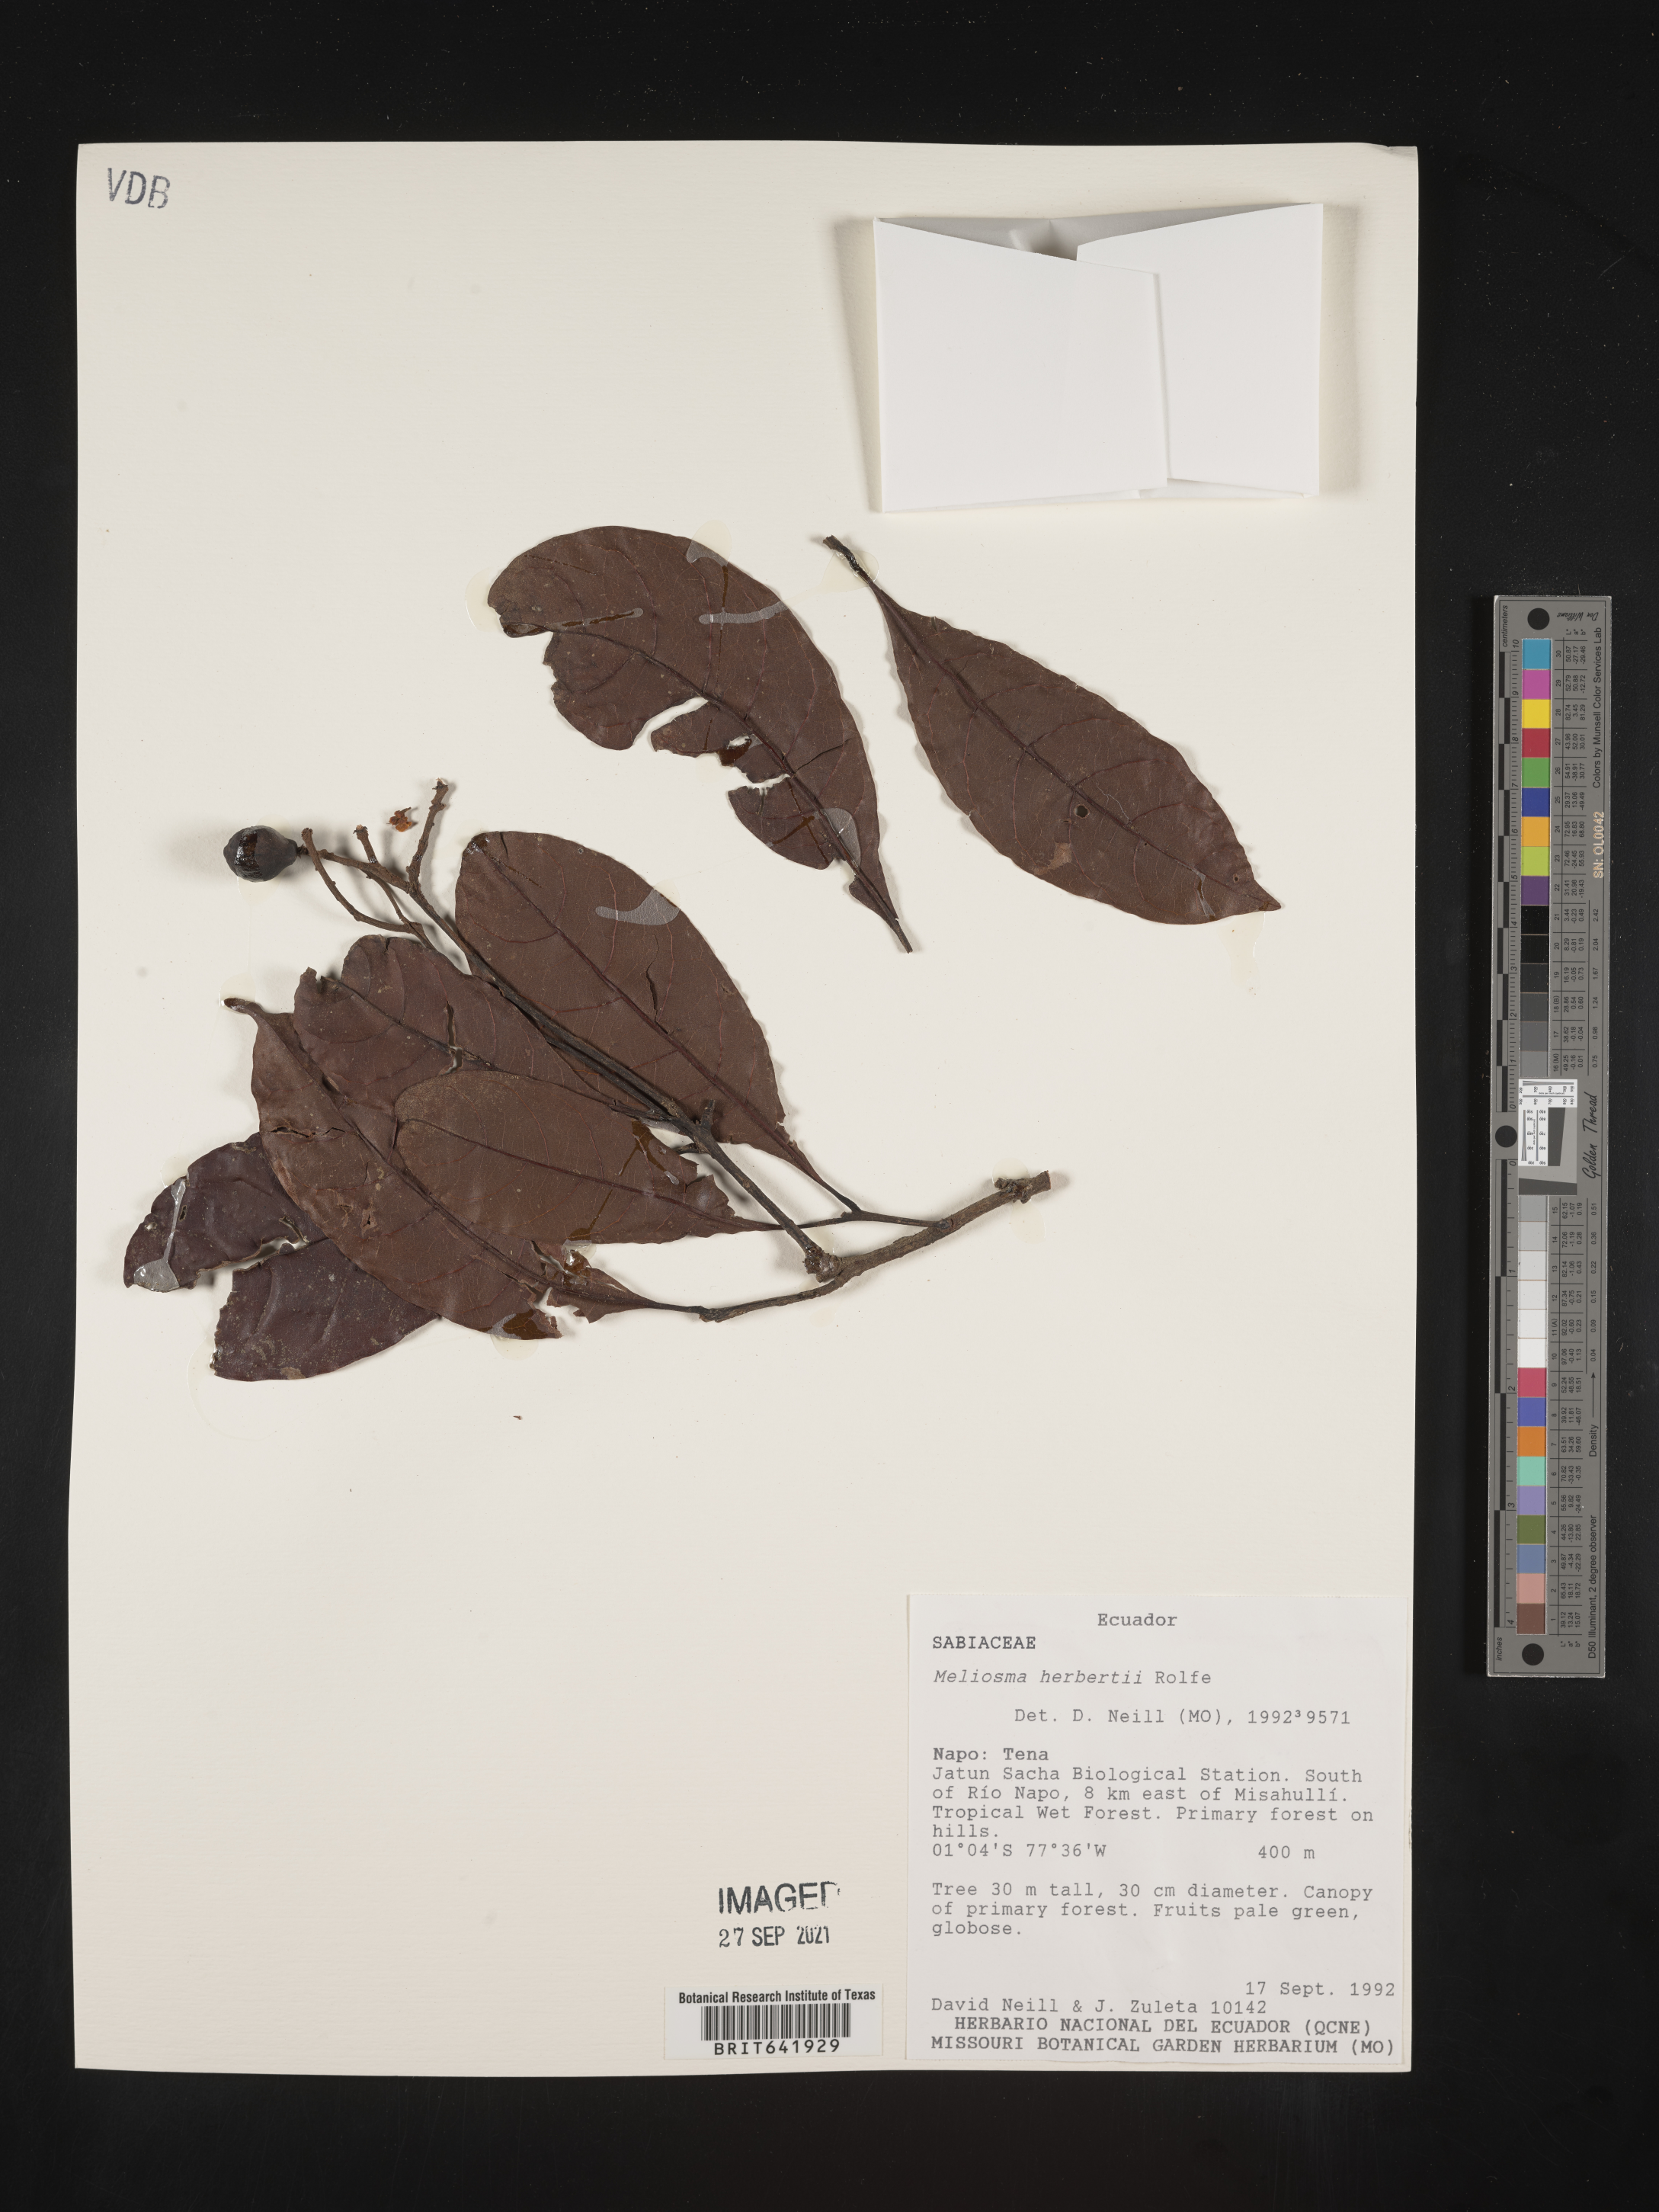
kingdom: Plantae
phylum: Tracheophyta
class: Magnoliopsida
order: Proteales
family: Sabiaceae
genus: Meliosma
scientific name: Meliosma
